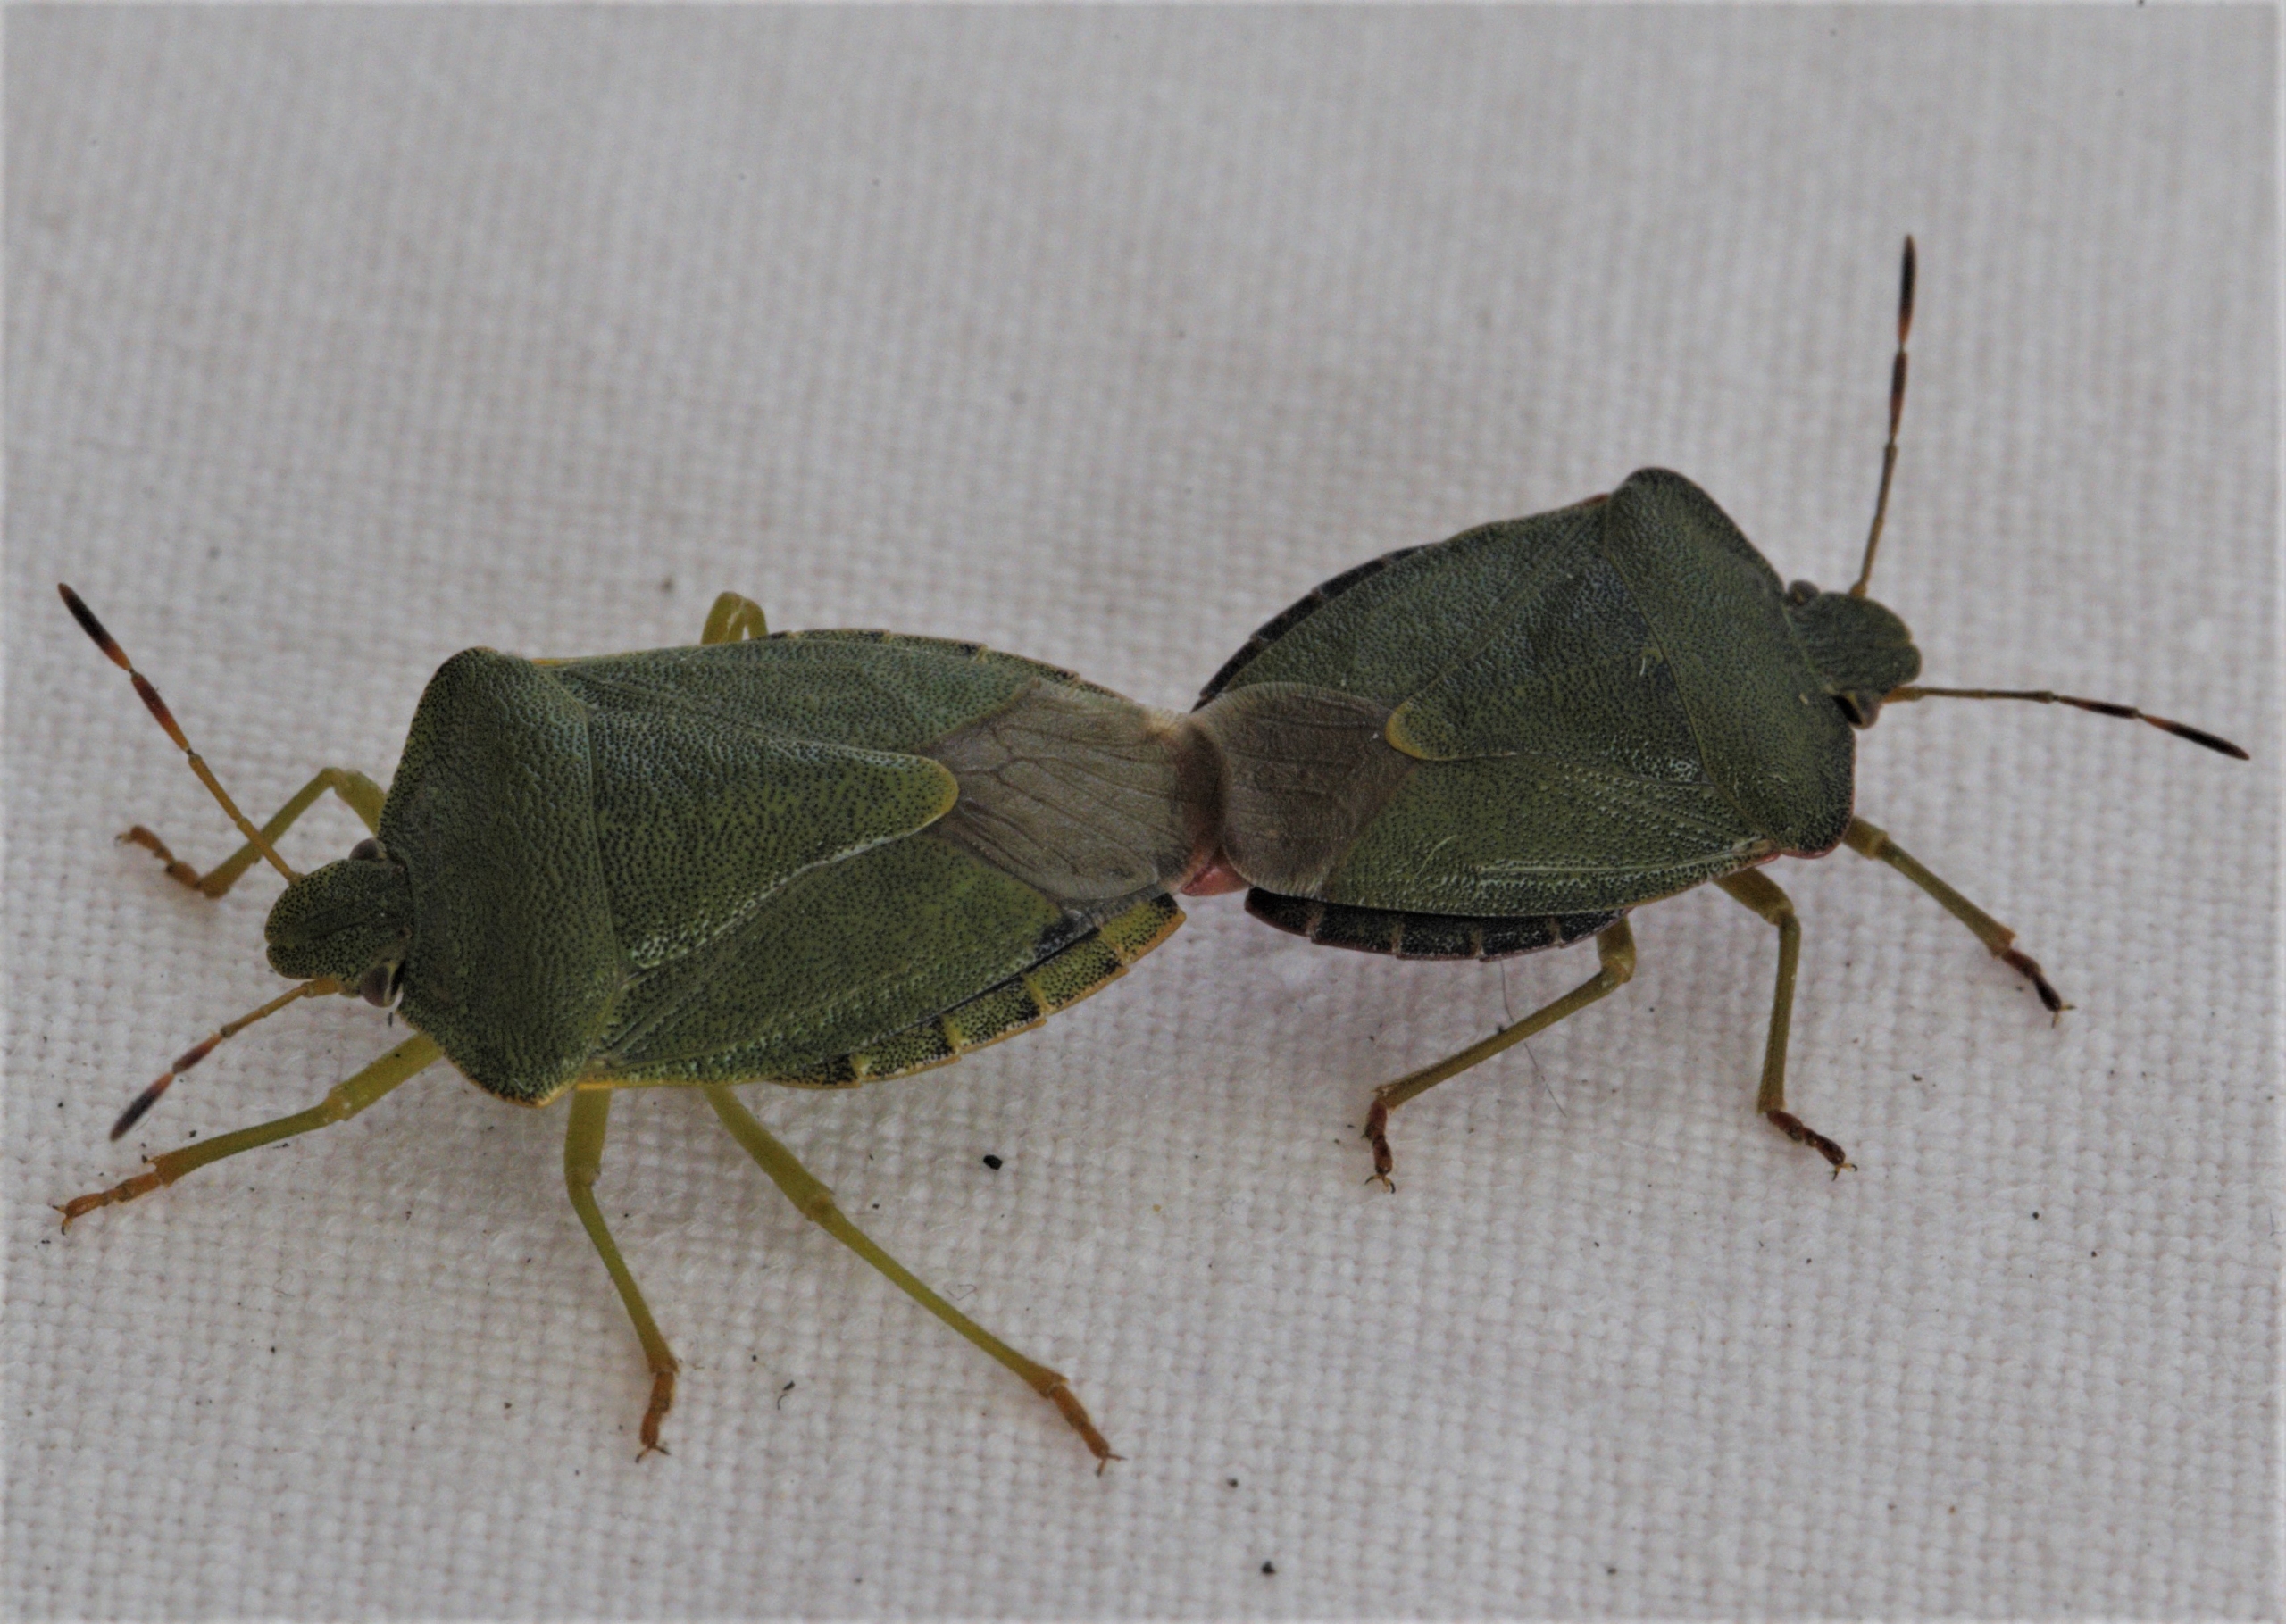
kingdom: Animalia
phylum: Arthropoda
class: Insecta
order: Hemiptera
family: Pentatomidae
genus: Palomena
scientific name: Palomena prasina
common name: Grøn bredtæge
